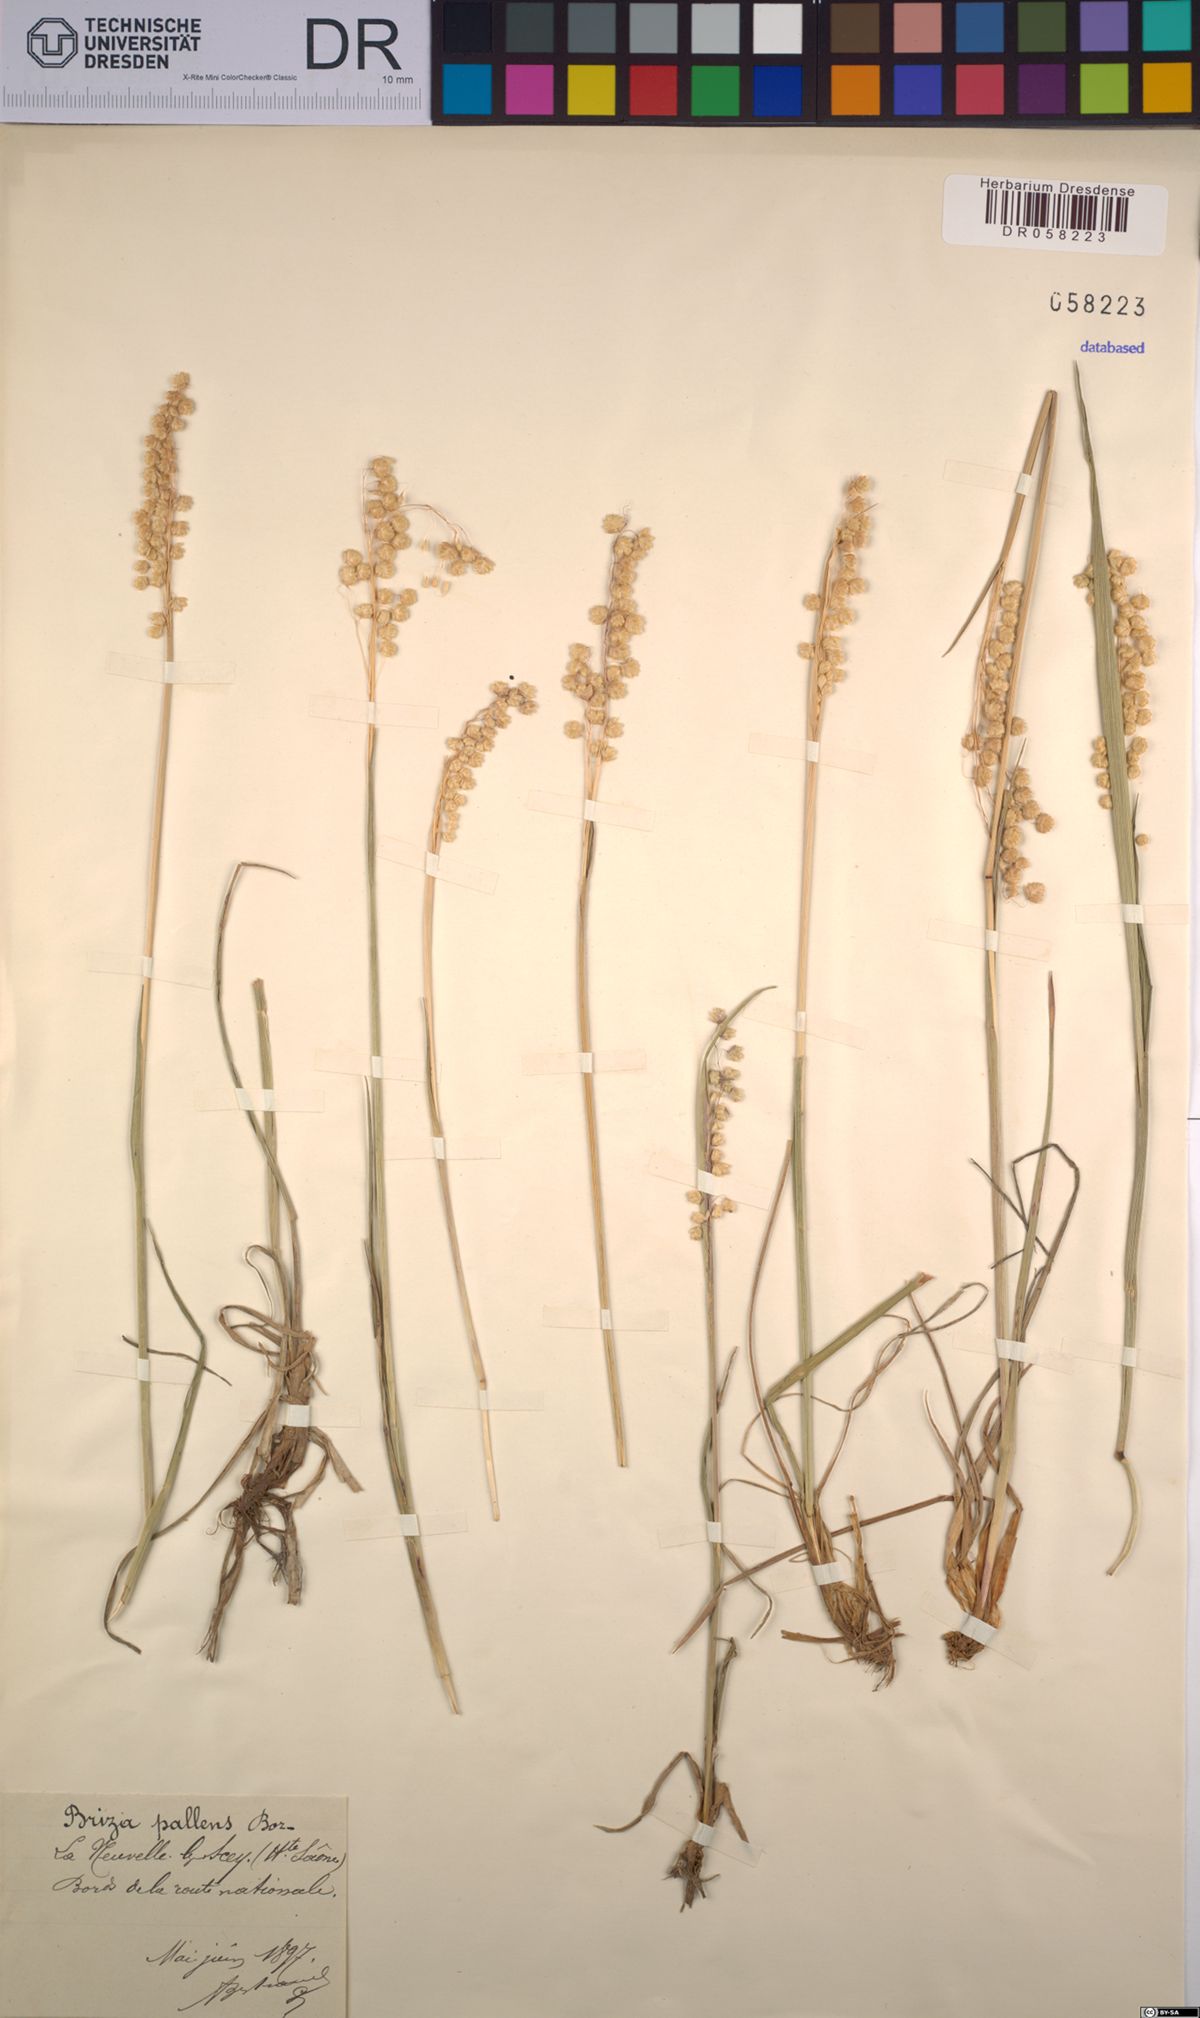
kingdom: Plantae
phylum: Tracheophyta
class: Liliopsida
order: Poales
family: Poaceae
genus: Briza
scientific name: Briza
